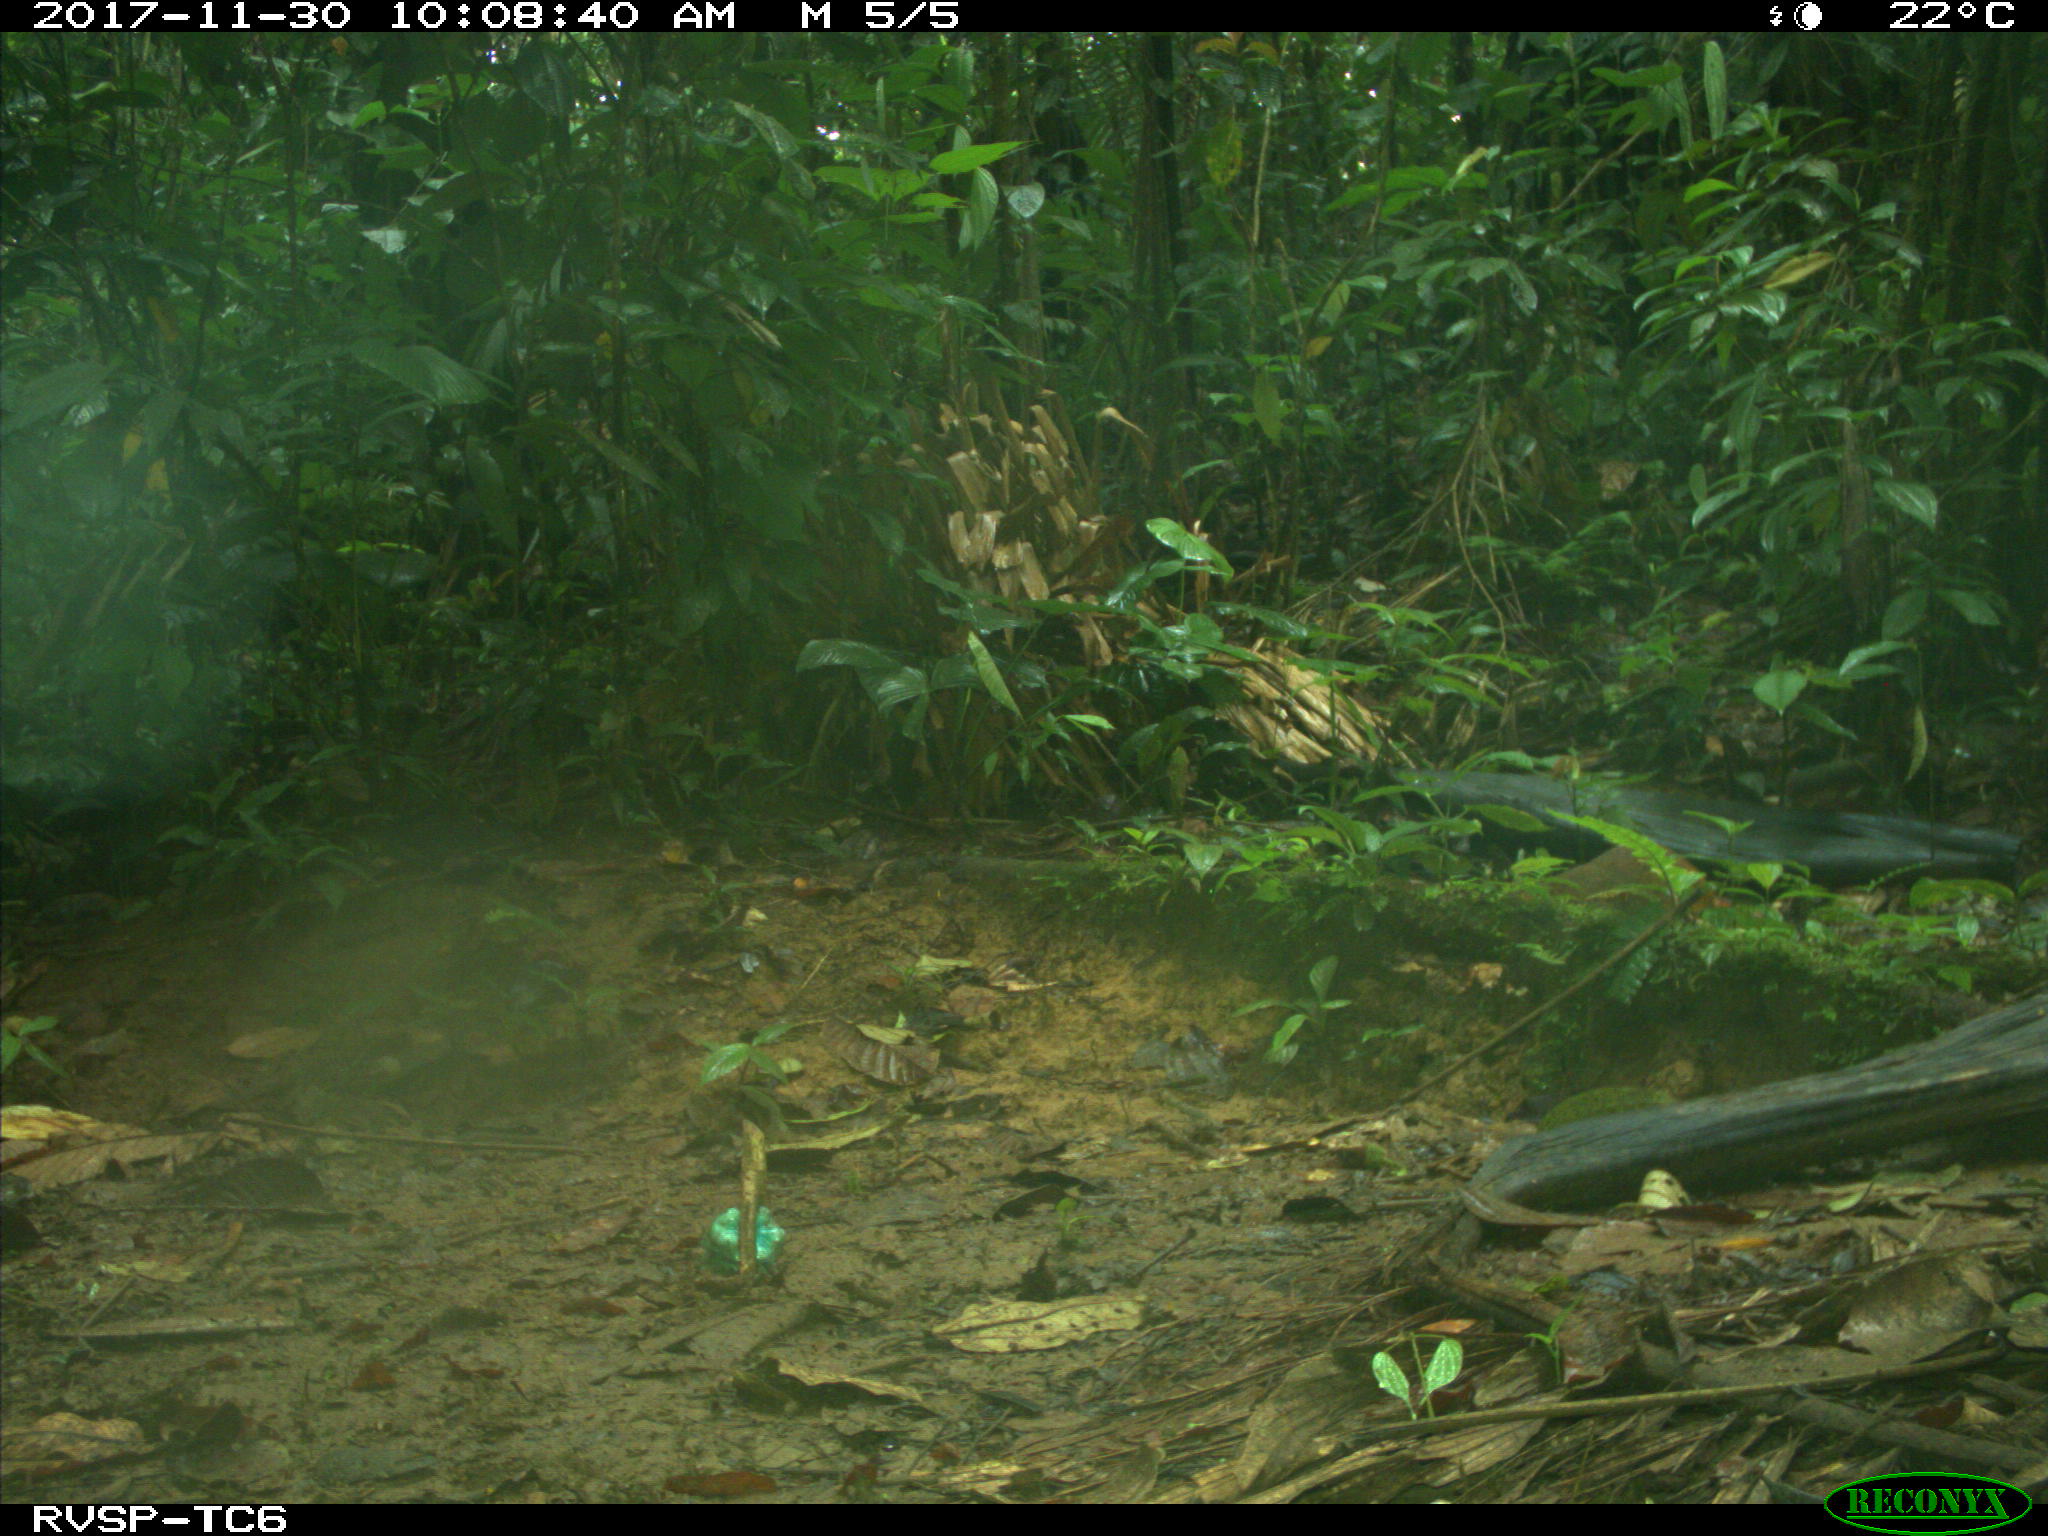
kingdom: Animalia
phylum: Chordata
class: Mammalia
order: Rodentia
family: Dasyproctidae
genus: Dasyprocta
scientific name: Dasyprocta punctata
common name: Central american agouti
